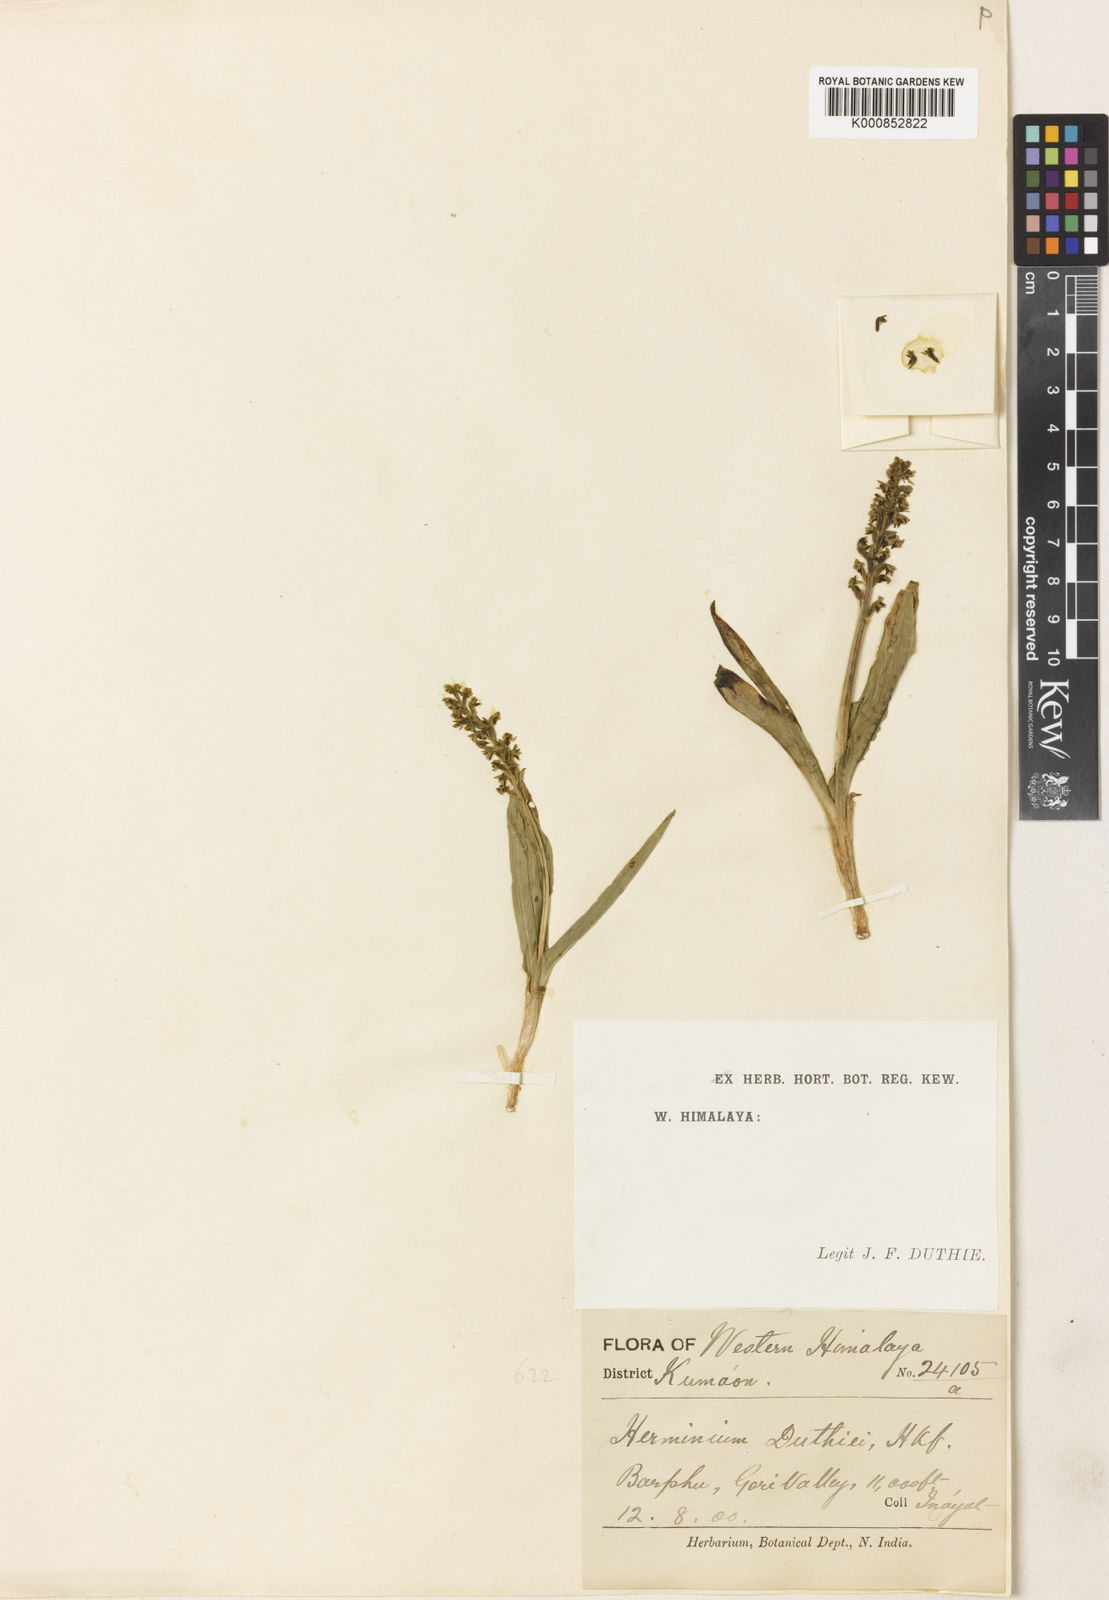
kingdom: Plantae
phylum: Tracheophyta
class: Liliopsida
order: Asparagales
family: Orchidaceae
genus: Herminium
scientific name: Herminium josephi
